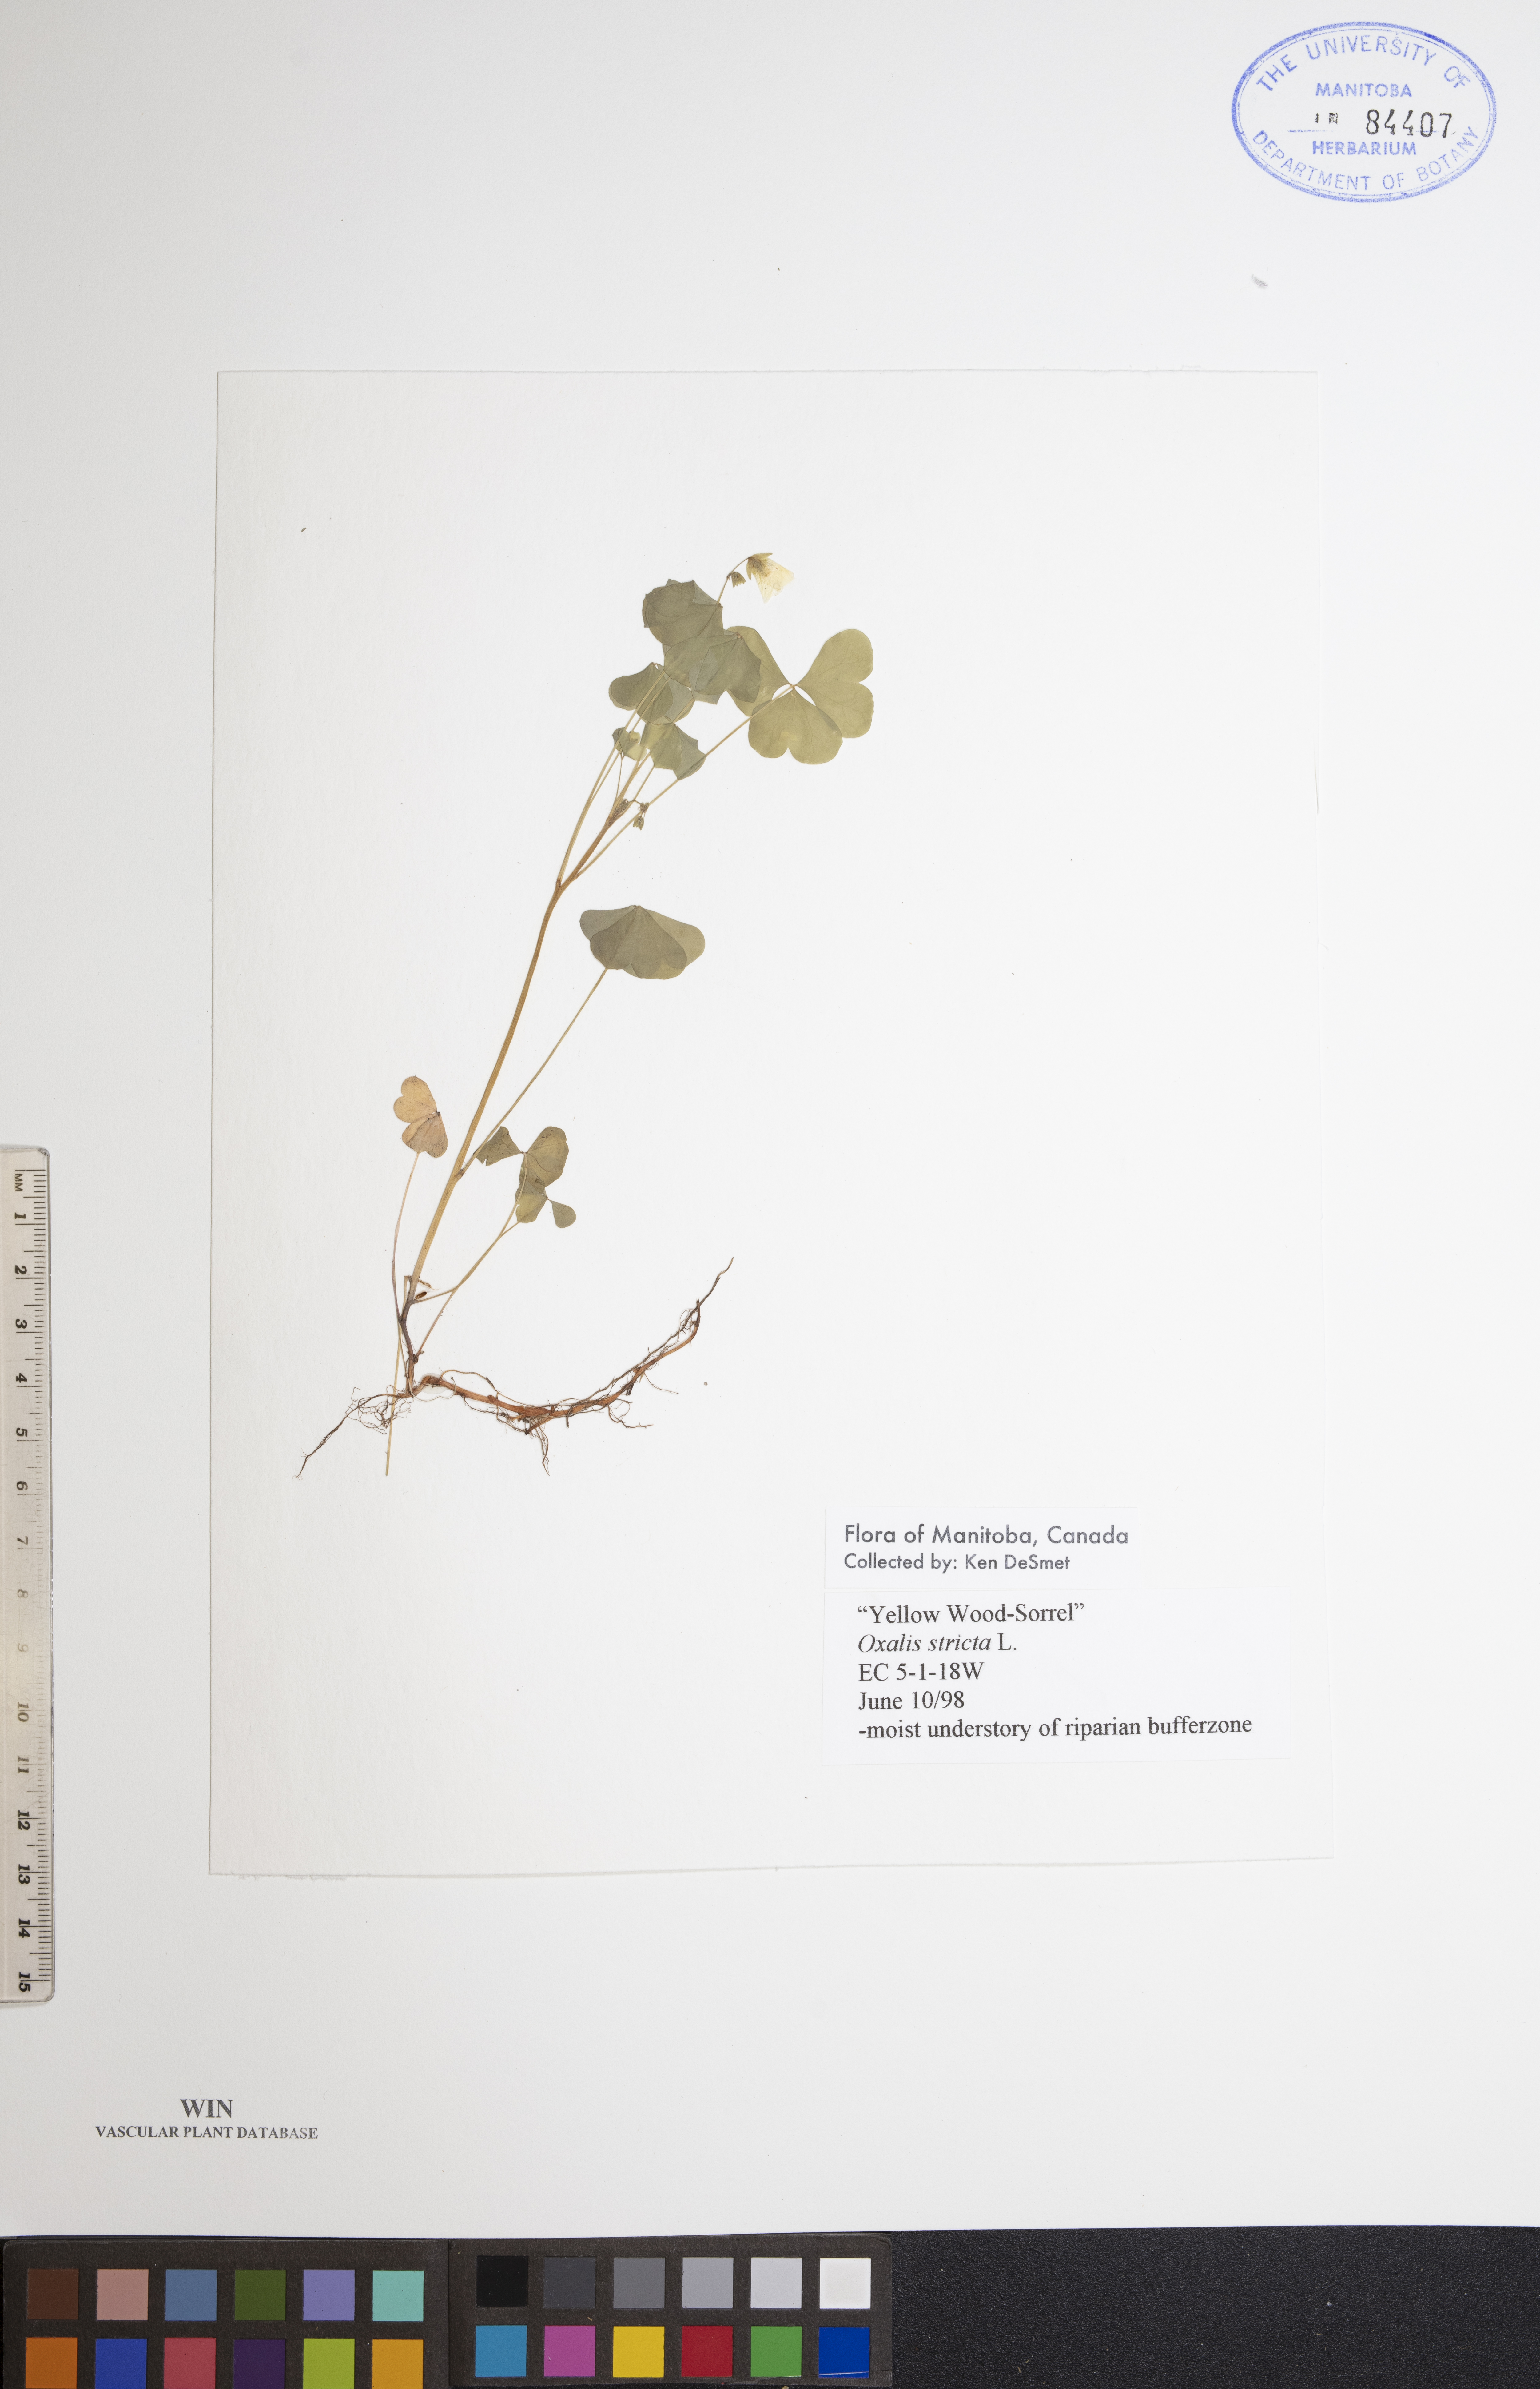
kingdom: Plantae
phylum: Tracheophyta
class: Magnoliopsida
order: Oxalidales
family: Oxalidaceae
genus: Oxalis
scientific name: Oxalis stricta
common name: Upright yellow-sorrel
